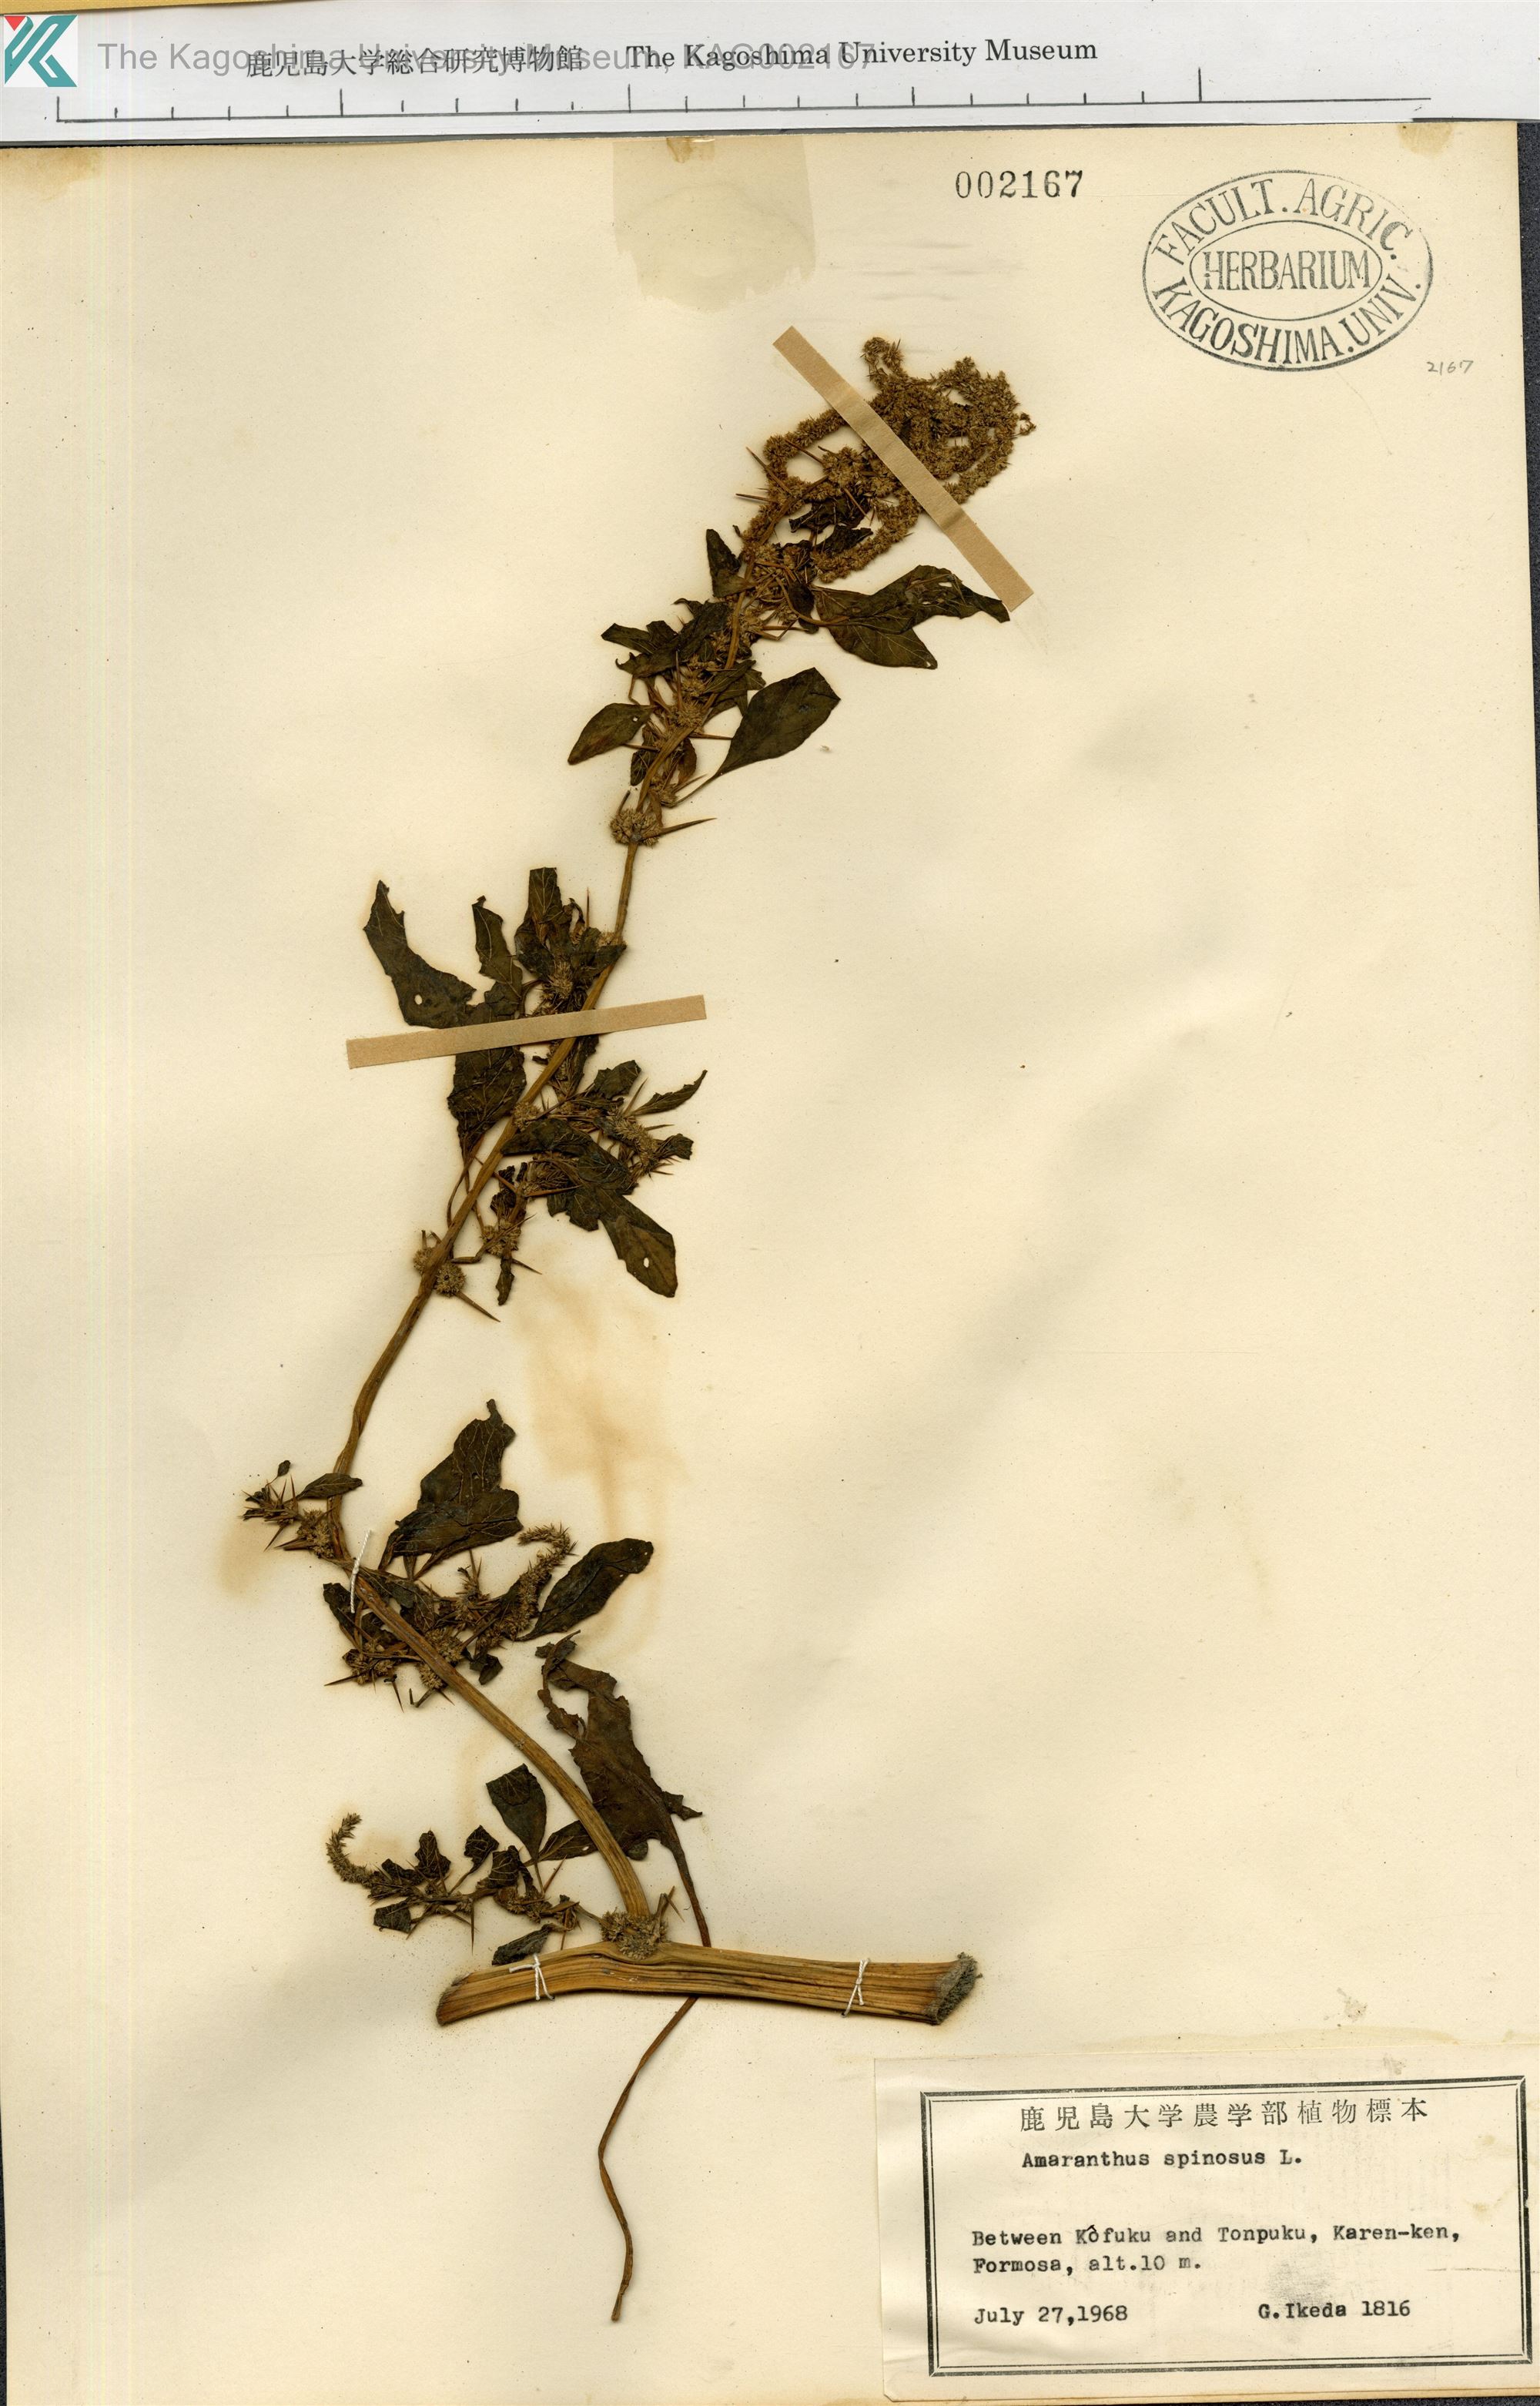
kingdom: Plantae
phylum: Tracheophyta
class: Magnoliopsida
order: Caryophyllales
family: Amaranthaceae
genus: Amaranthus
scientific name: Amaranthus spinosus
